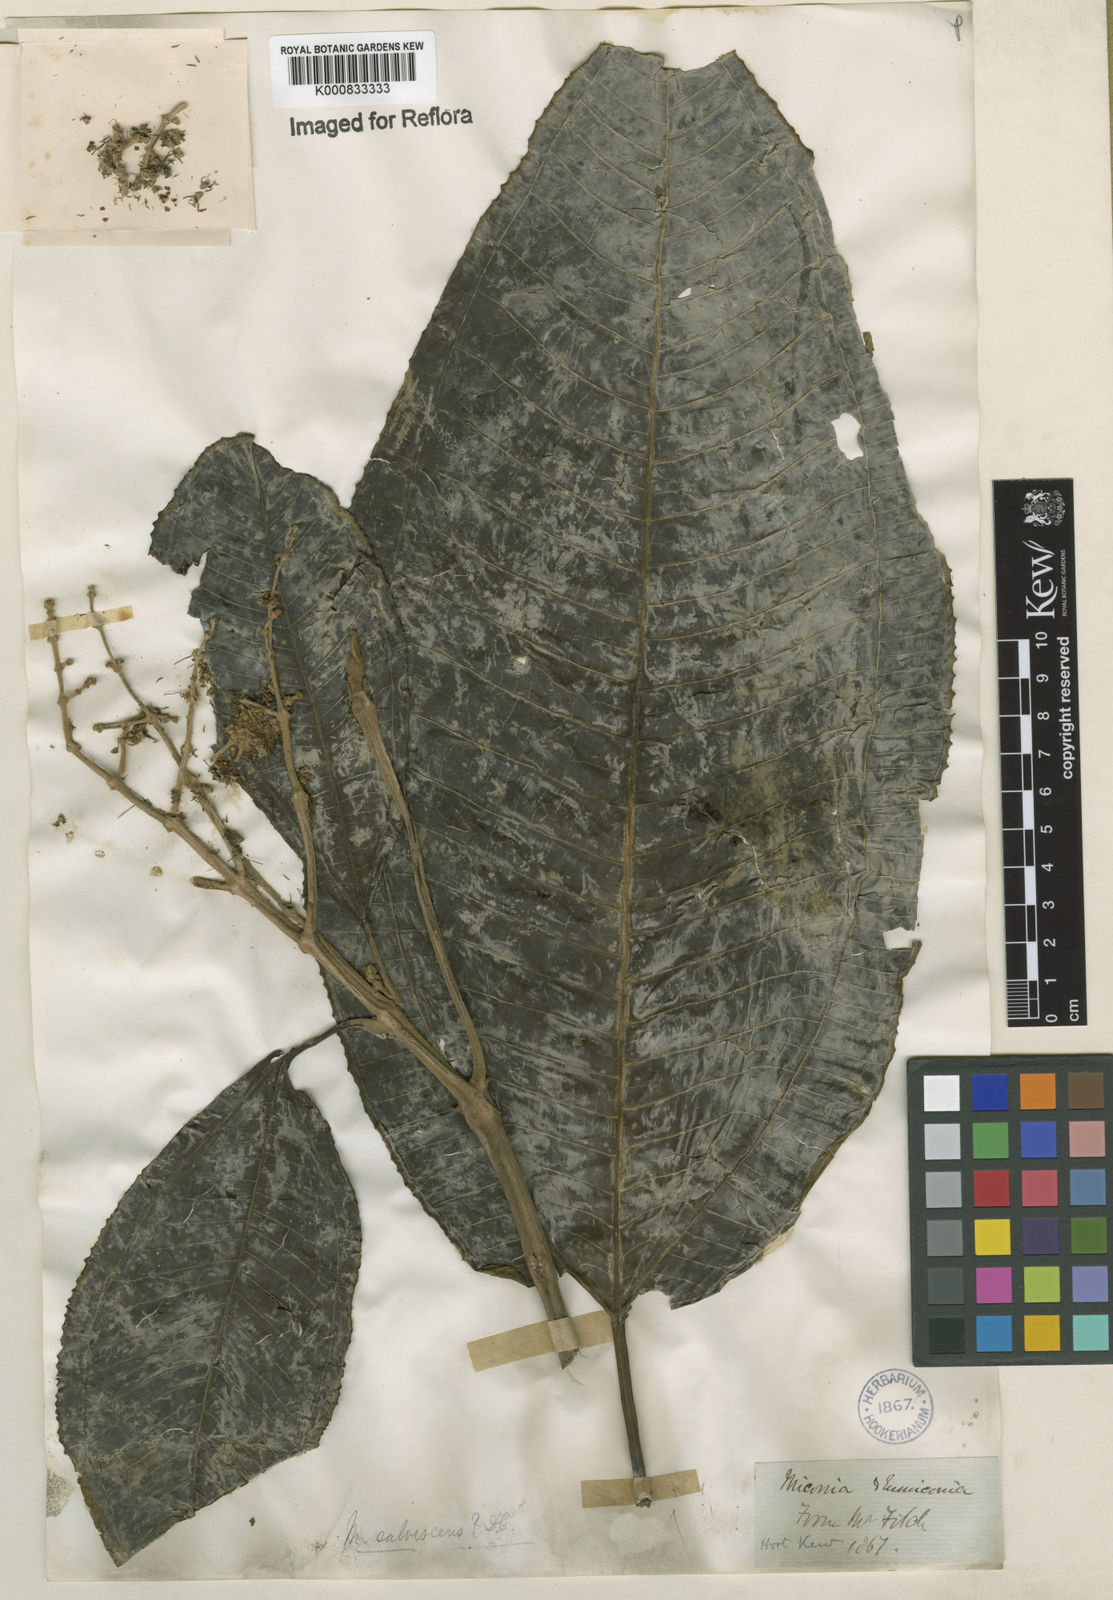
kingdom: Plantae
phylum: Tracheophyta
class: Magnoliopsida
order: Myrtales
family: Melastomataceae
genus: Miconia
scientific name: Miconia calvescens
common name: Purple plague
